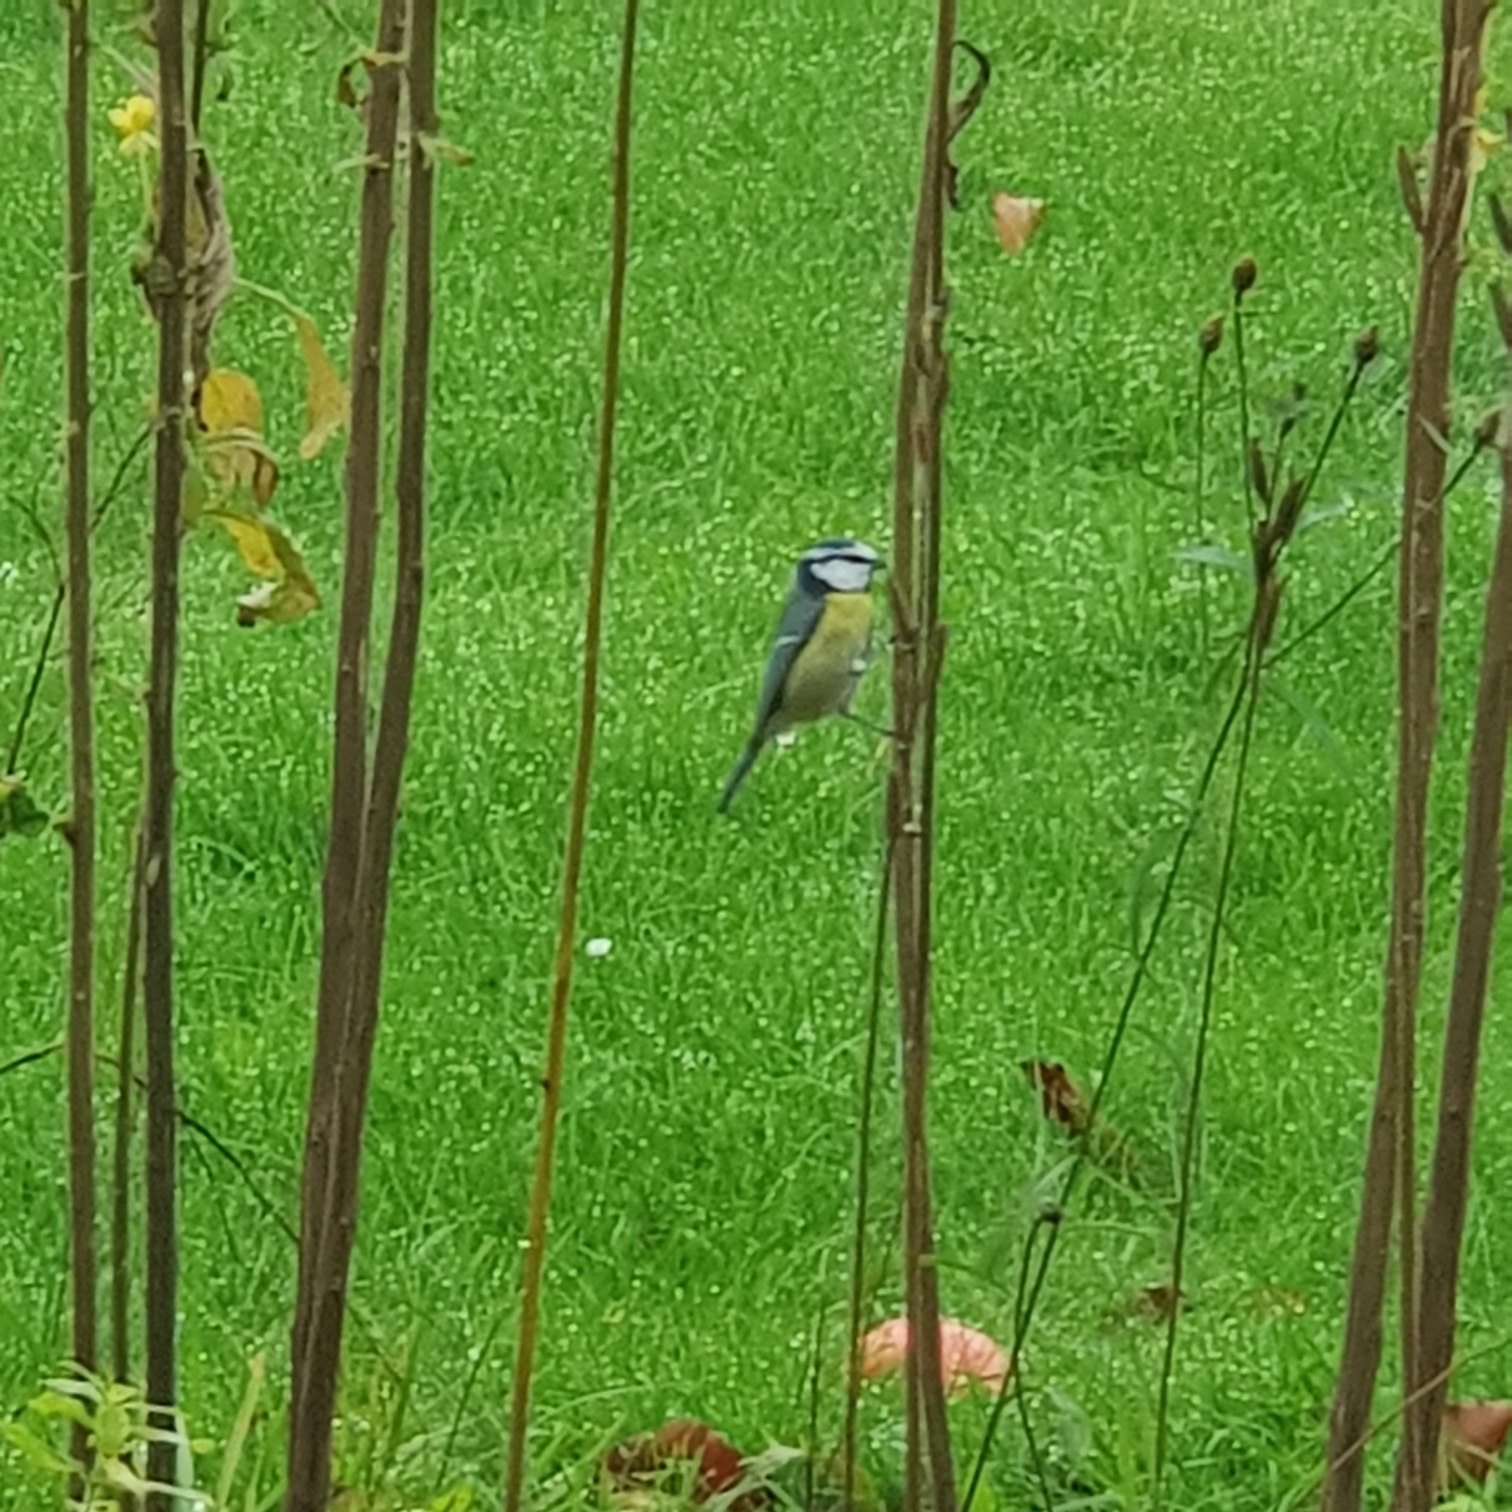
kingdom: Animalia
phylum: Chordata
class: Aves
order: Passeriformes
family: Paridae
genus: Cyanistes
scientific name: Cyanistes caeruleus
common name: Blåmejse
